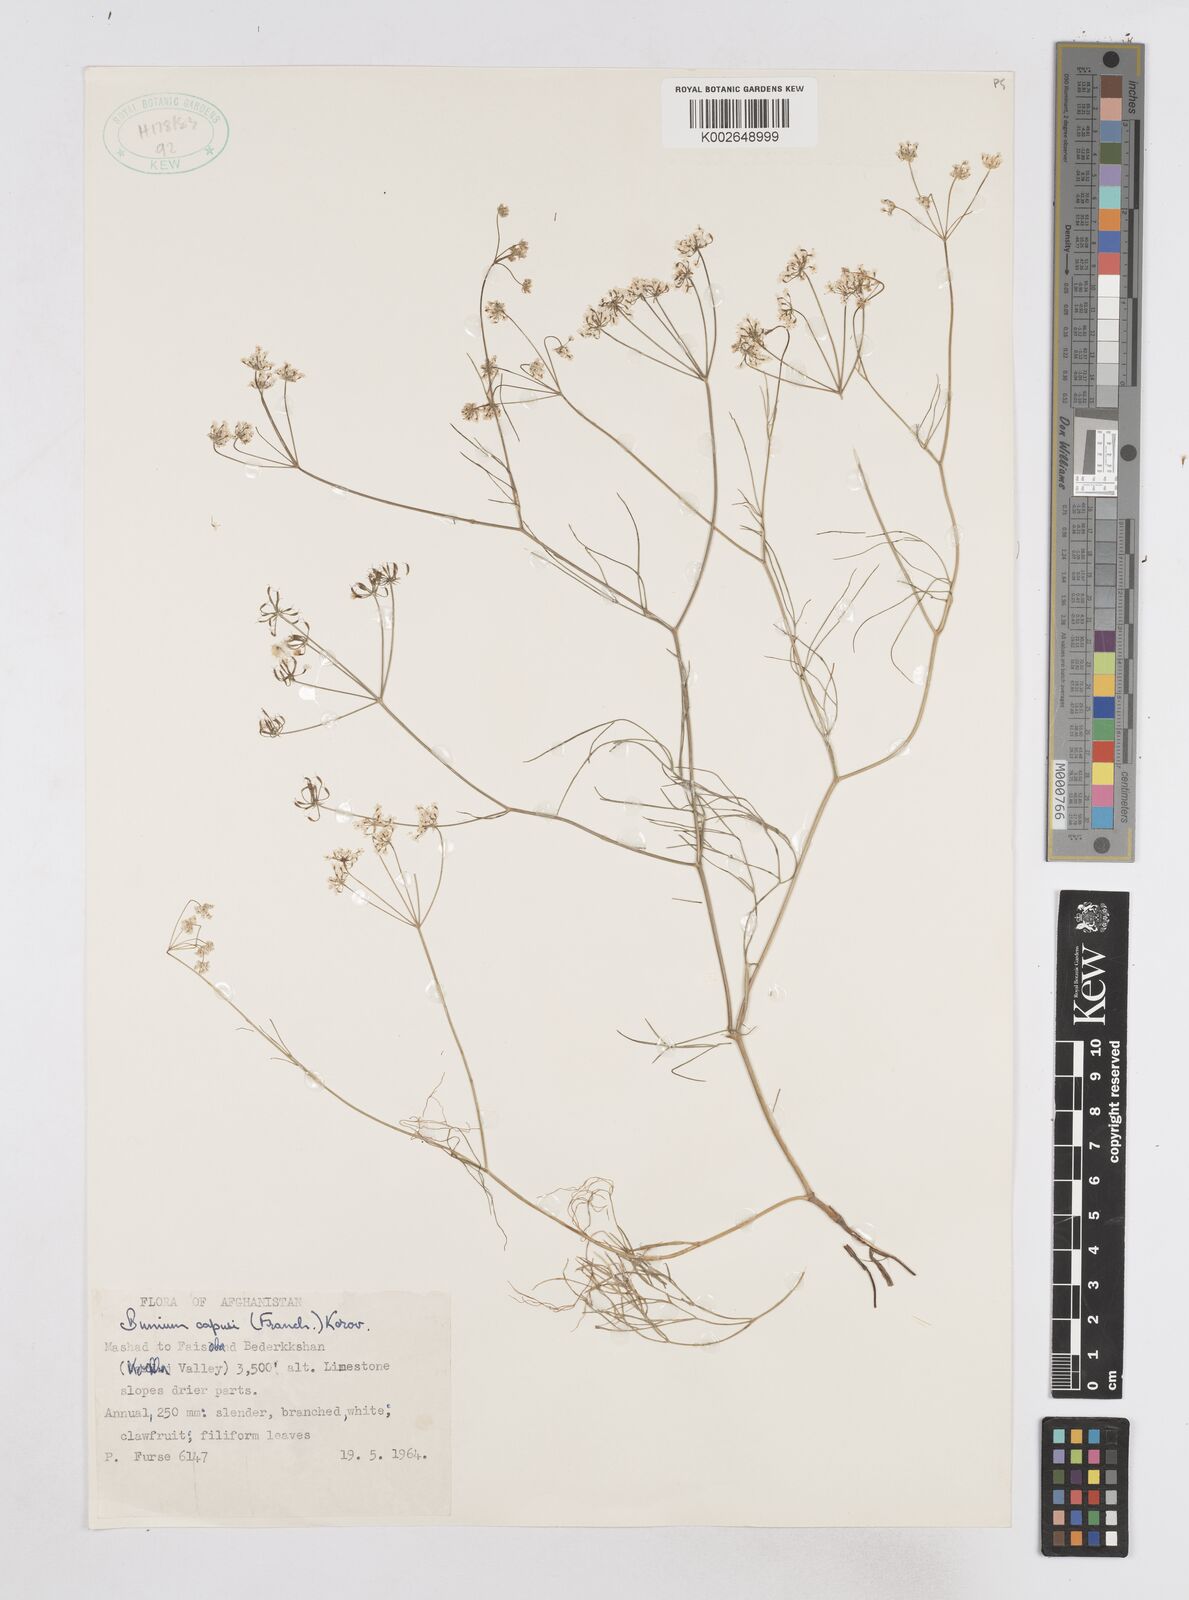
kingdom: Plantae
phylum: Tracheophyta
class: Magnoliopsida
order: Apiales
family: Apiaceae
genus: Elwendia
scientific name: Elwendia capusii
